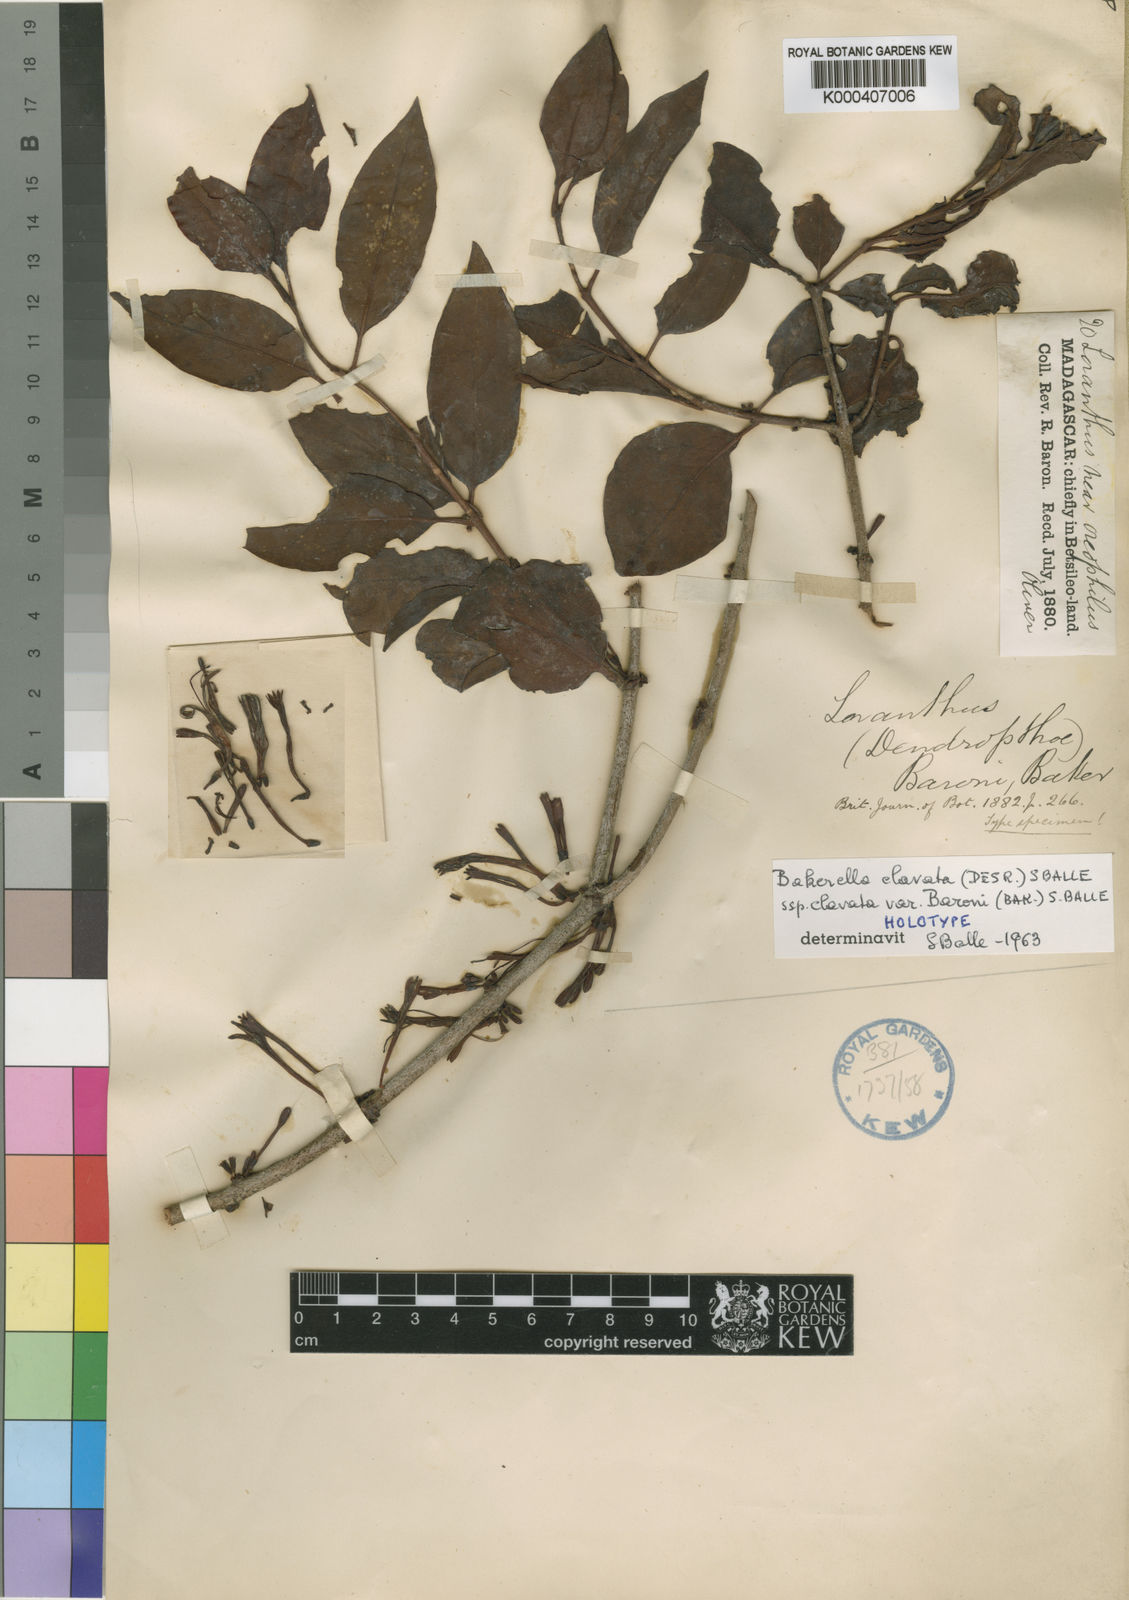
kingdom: Plantae
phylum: Tracheophyta
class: Magnoliopsida
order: Santalales
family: Loranthaceae
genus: Bakerella
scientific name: Bakerella clavata
